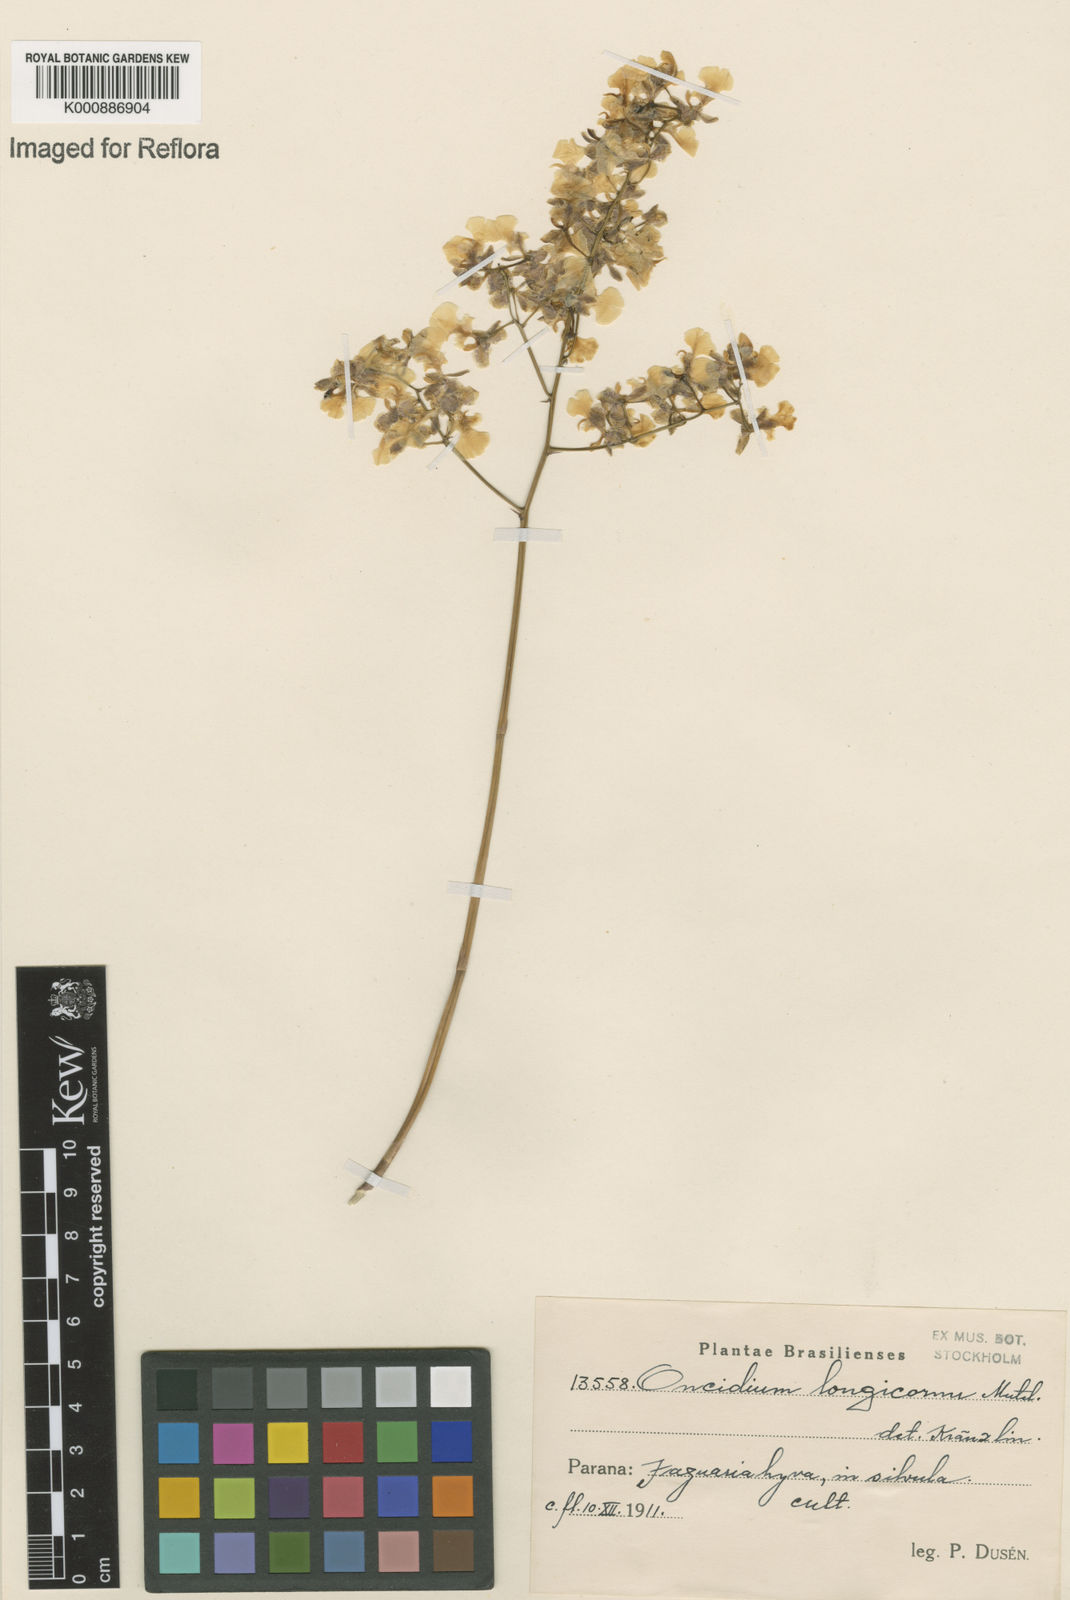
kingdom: Plantae
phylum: Tracheophyta
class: Liliopsida
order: Asparagales
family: Orchidaceae
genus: Gomesa
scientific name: Gomesa florida
